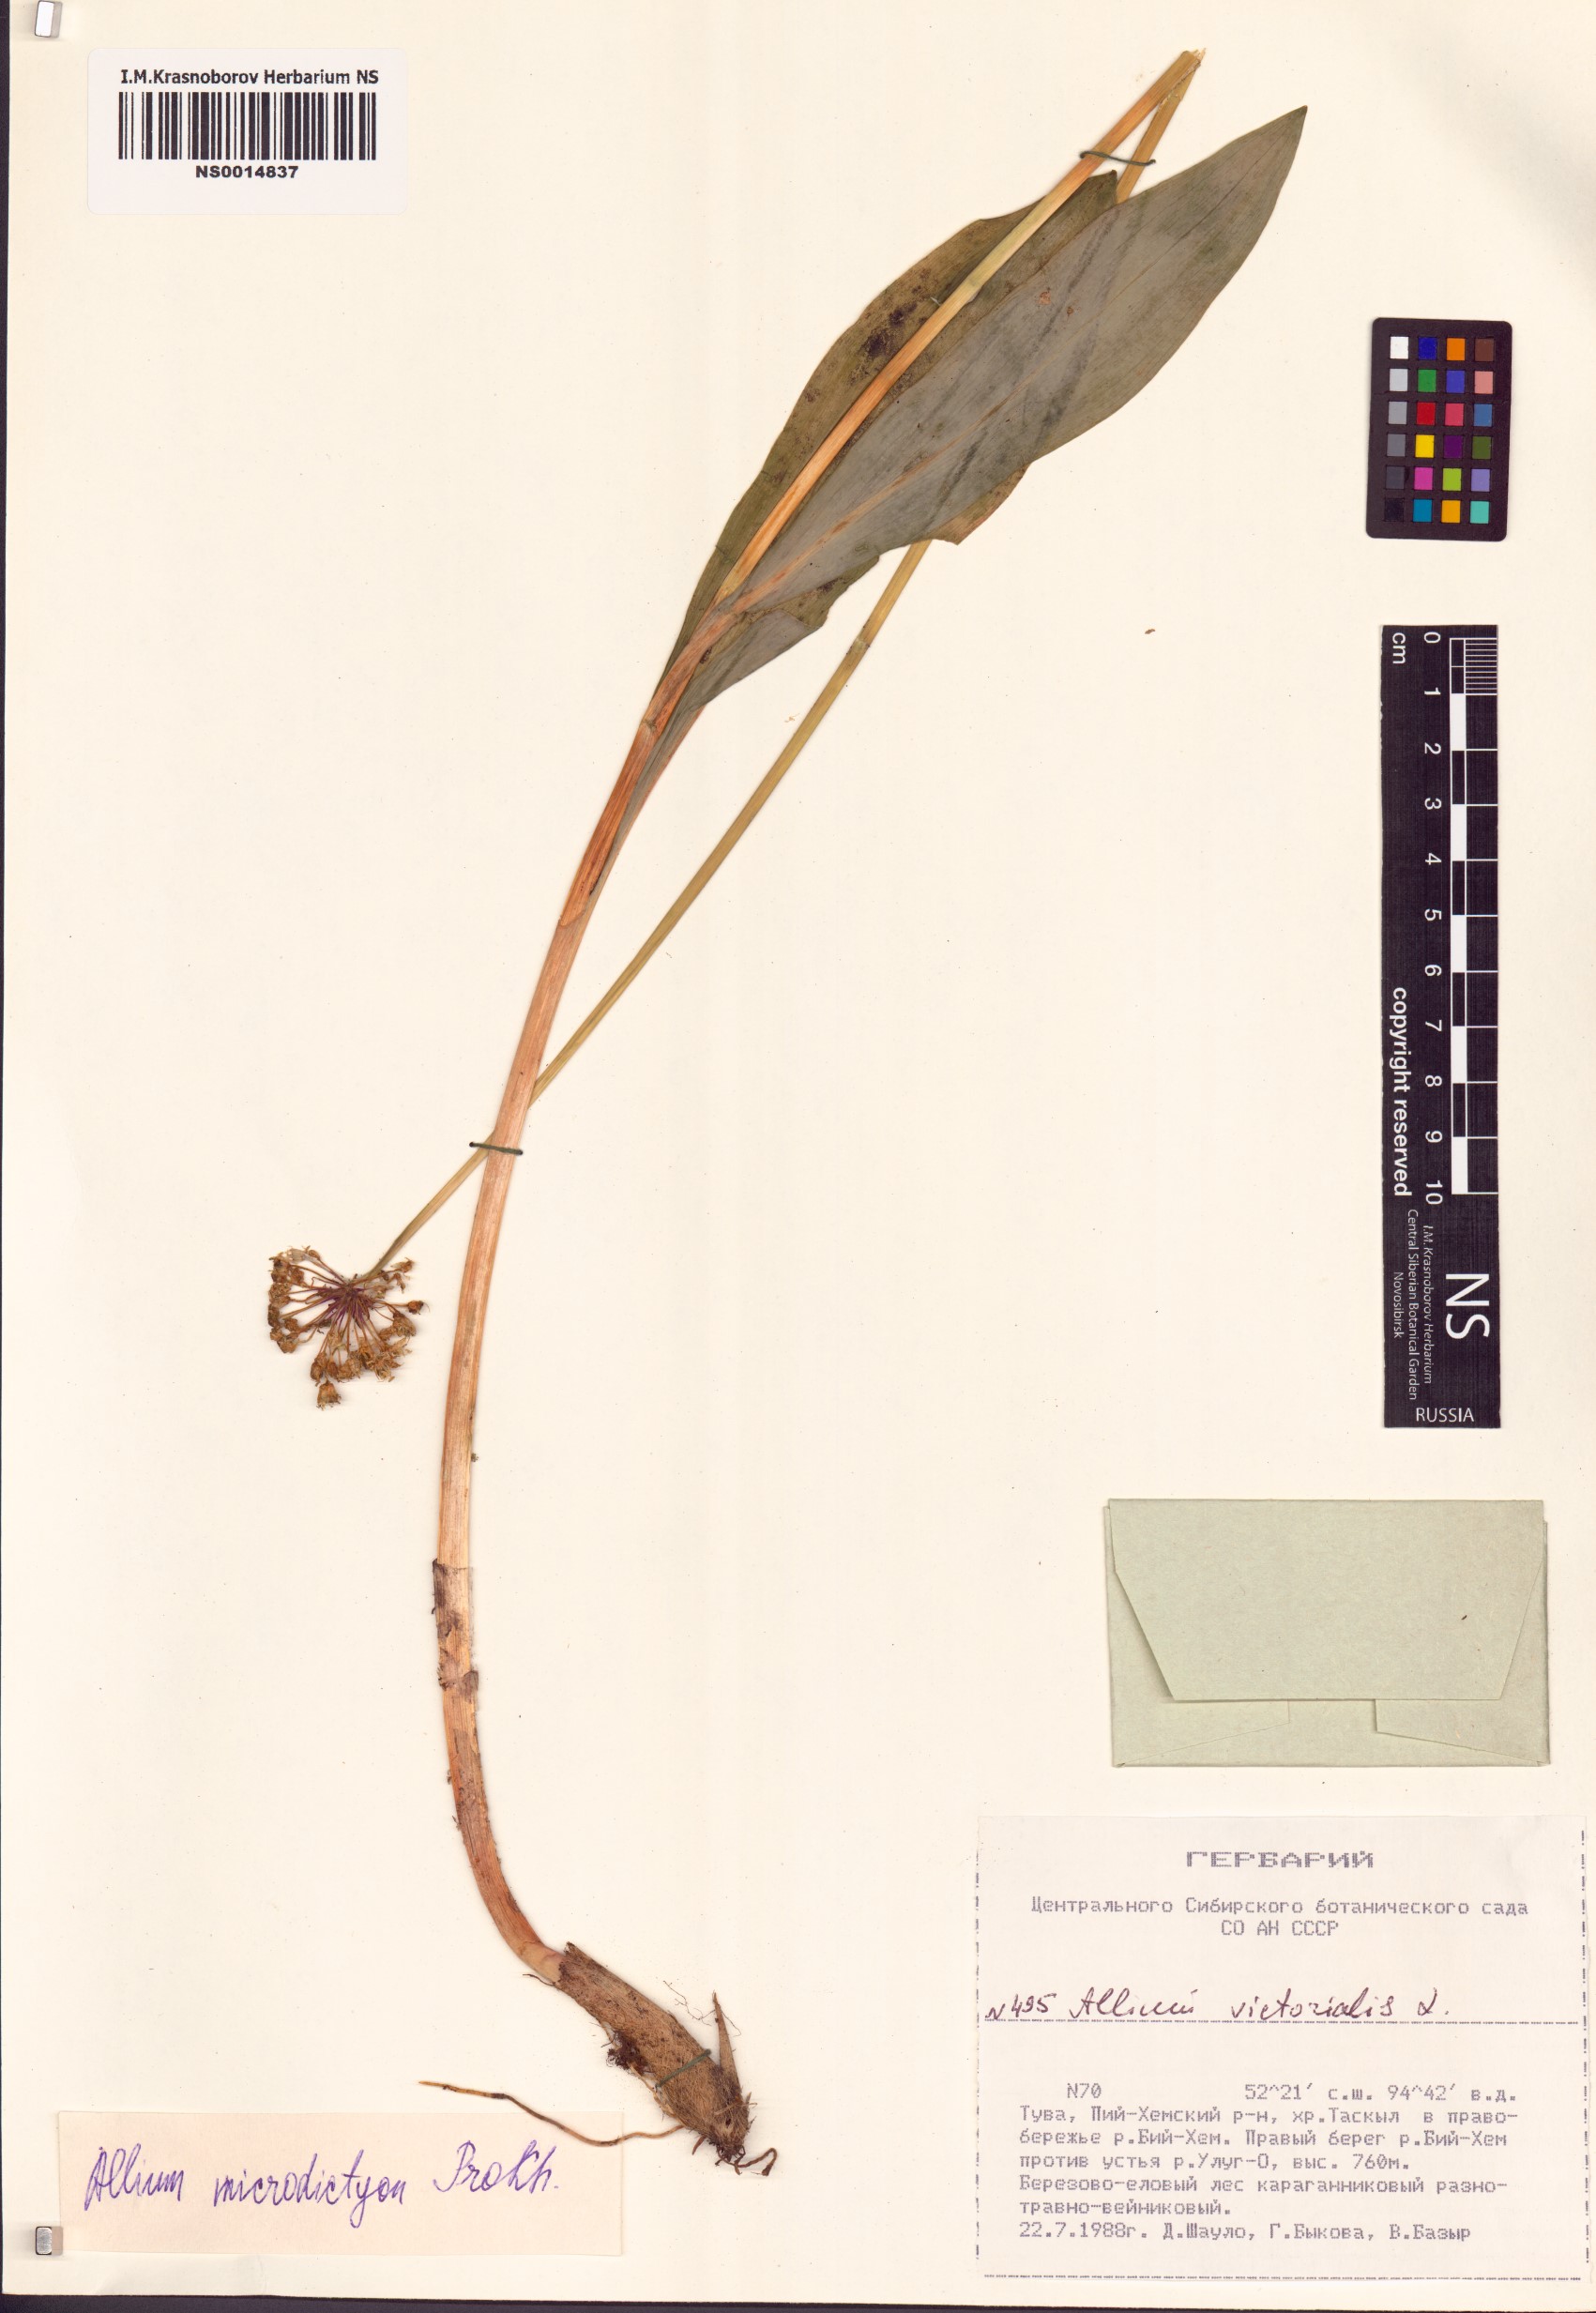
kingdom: Plantae
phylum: Tracheophyta
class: Liliopsida
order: Asparagales
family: Amaryllidaceae
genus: Allium
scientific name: Allium microdictyon
